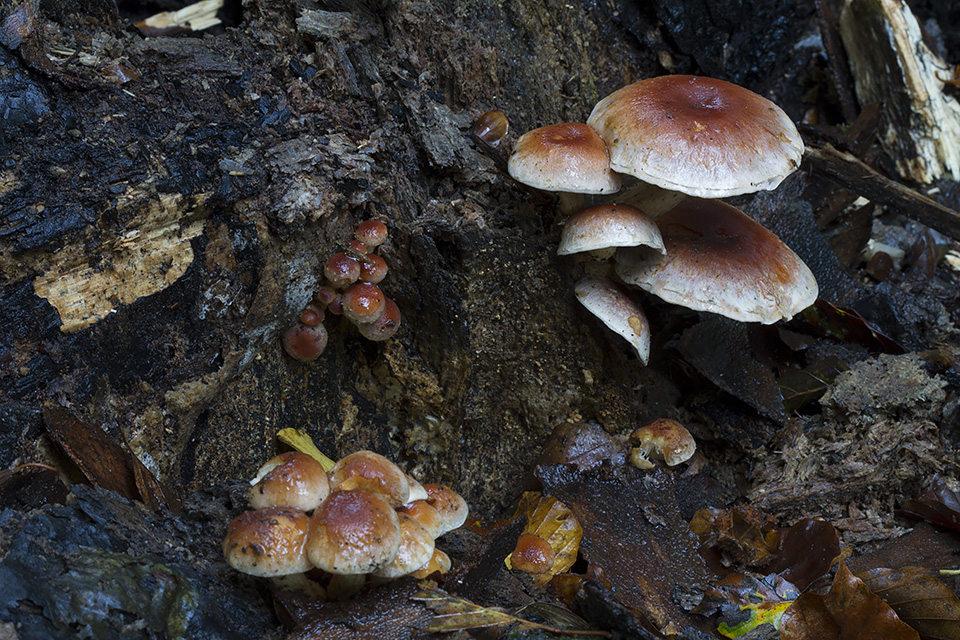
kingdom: Fungi
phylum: Basidiomycota
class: Agaricomycetes
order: Agaricales
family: Strophariaceae
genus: Hypholoma
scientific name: Hypholoma lateritium
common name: teglrød svovlhat
